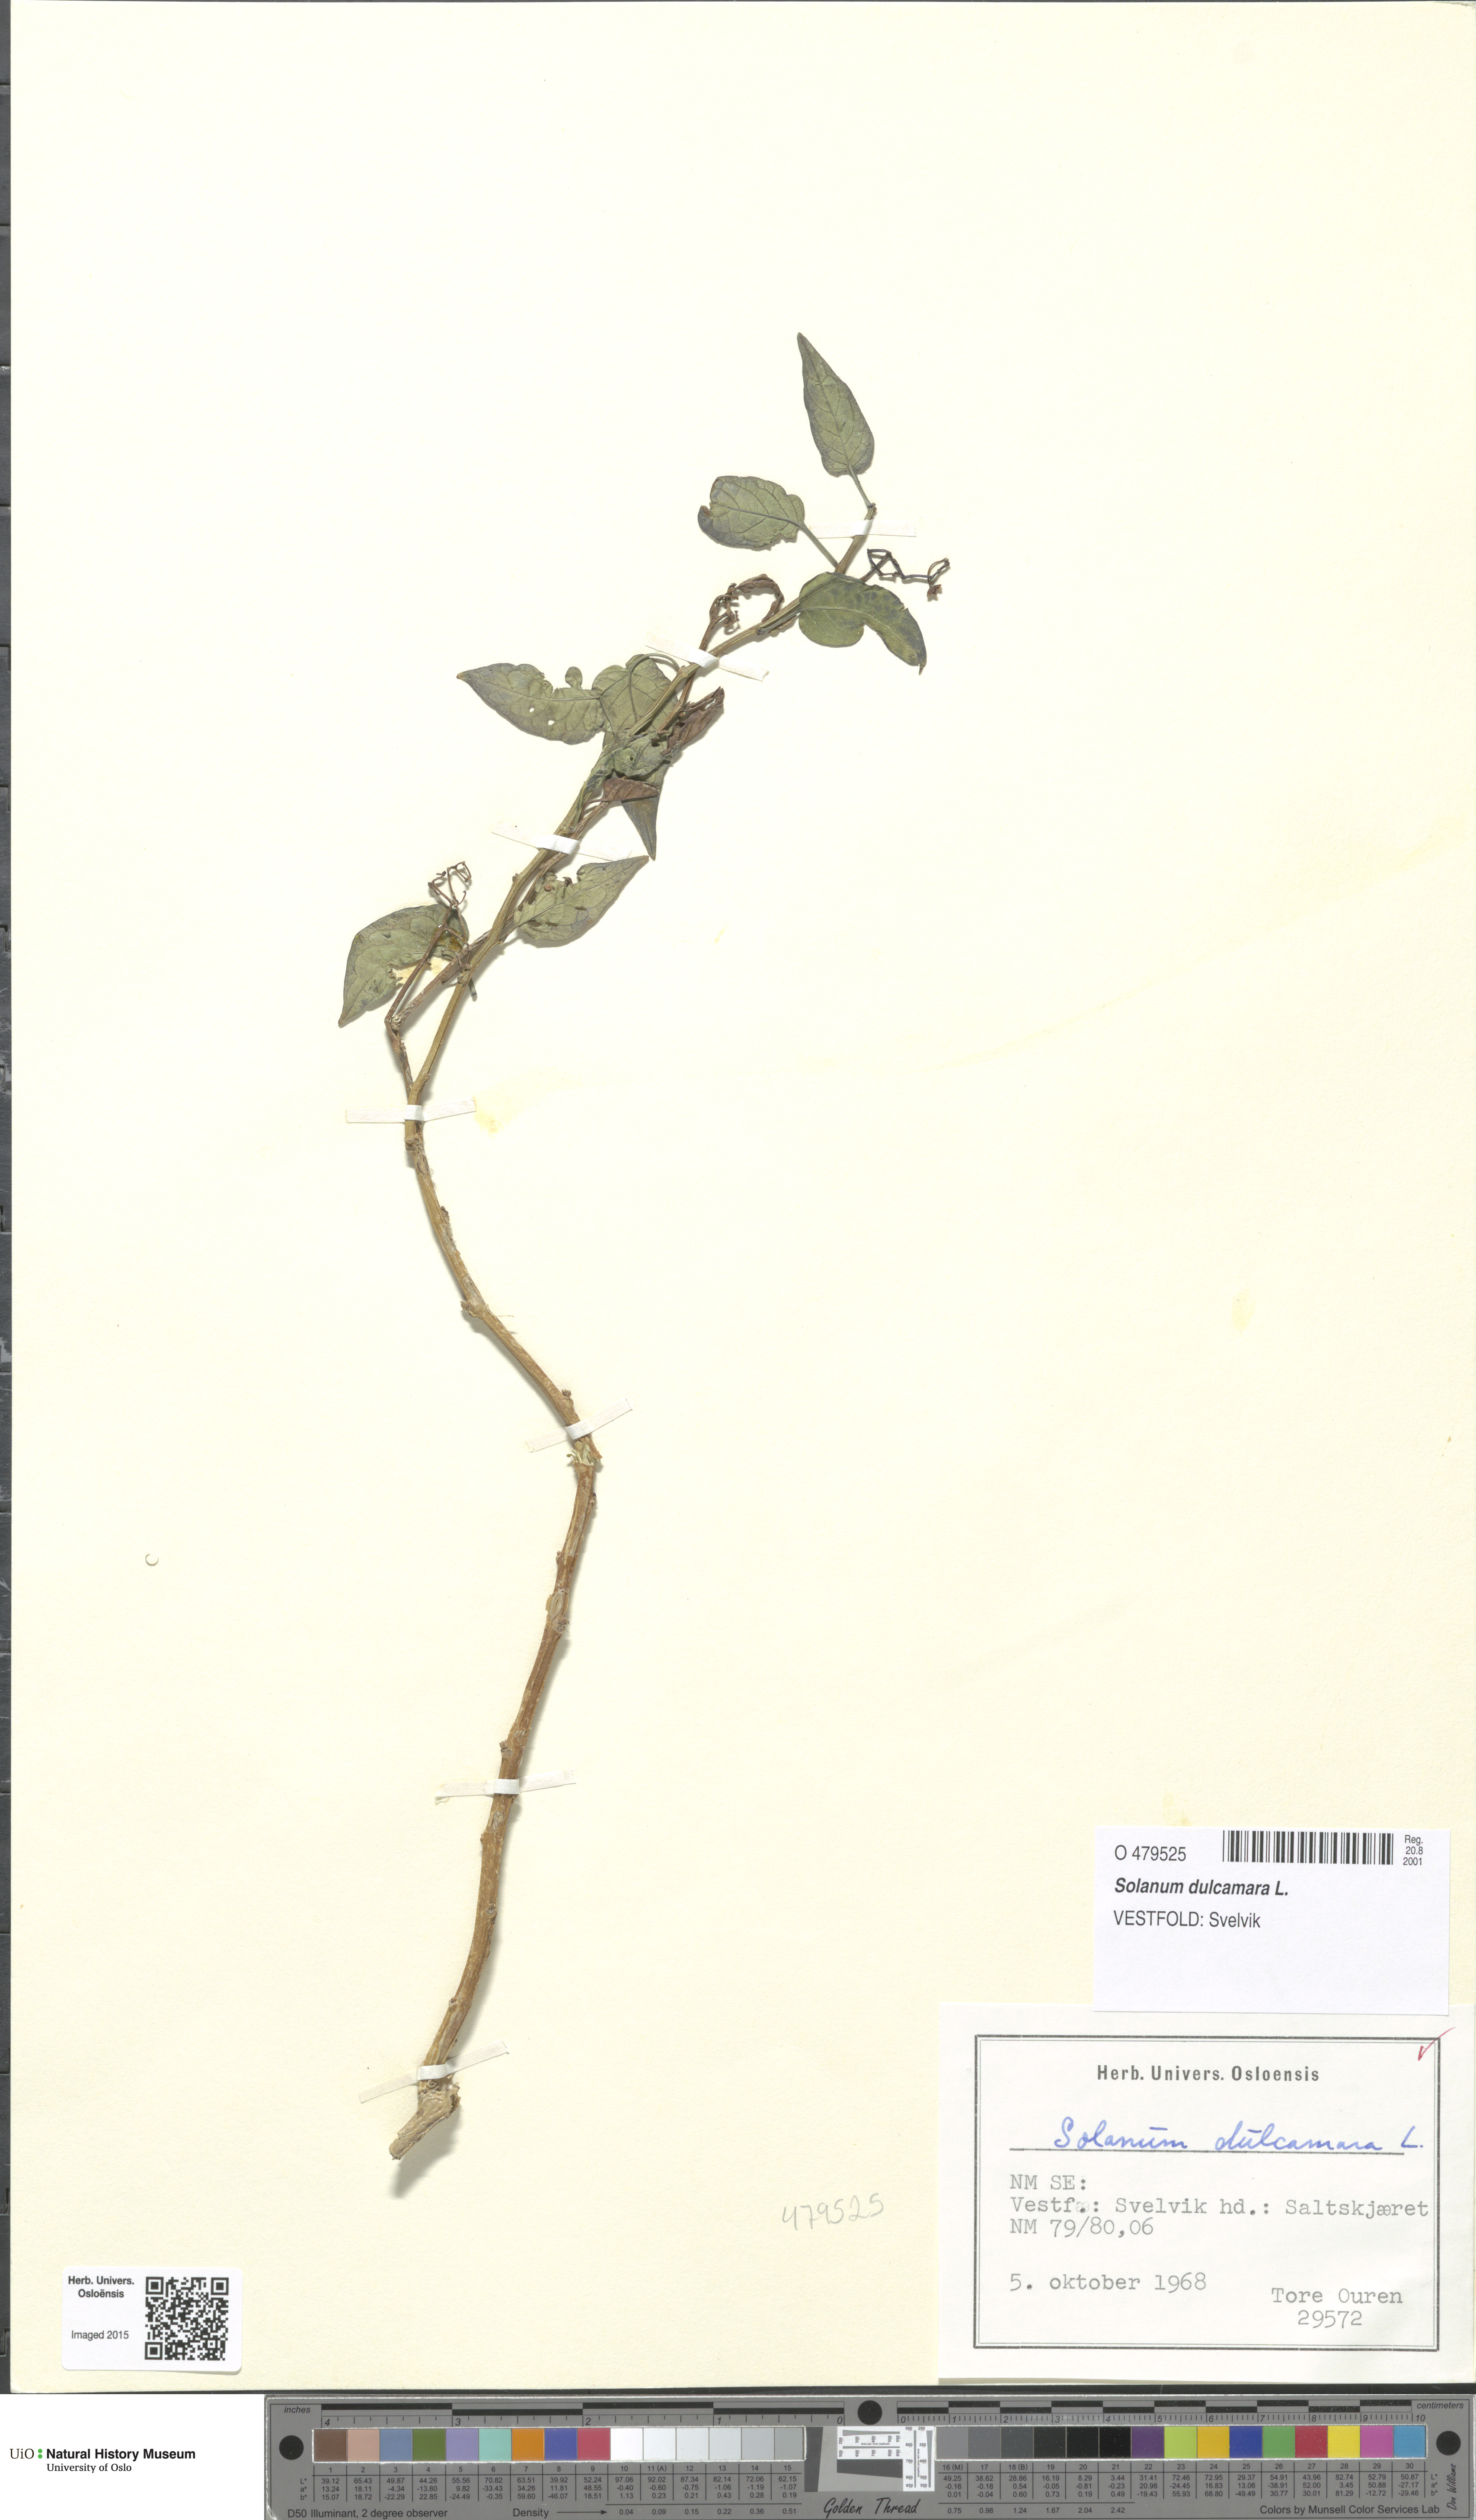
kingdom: Plantae
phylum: Tracheophyta
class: Magnoliopsida
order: Solanales
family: Solanaceae
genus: Solanum
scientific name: Solanum dulcamara
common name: Climbing nightshade
